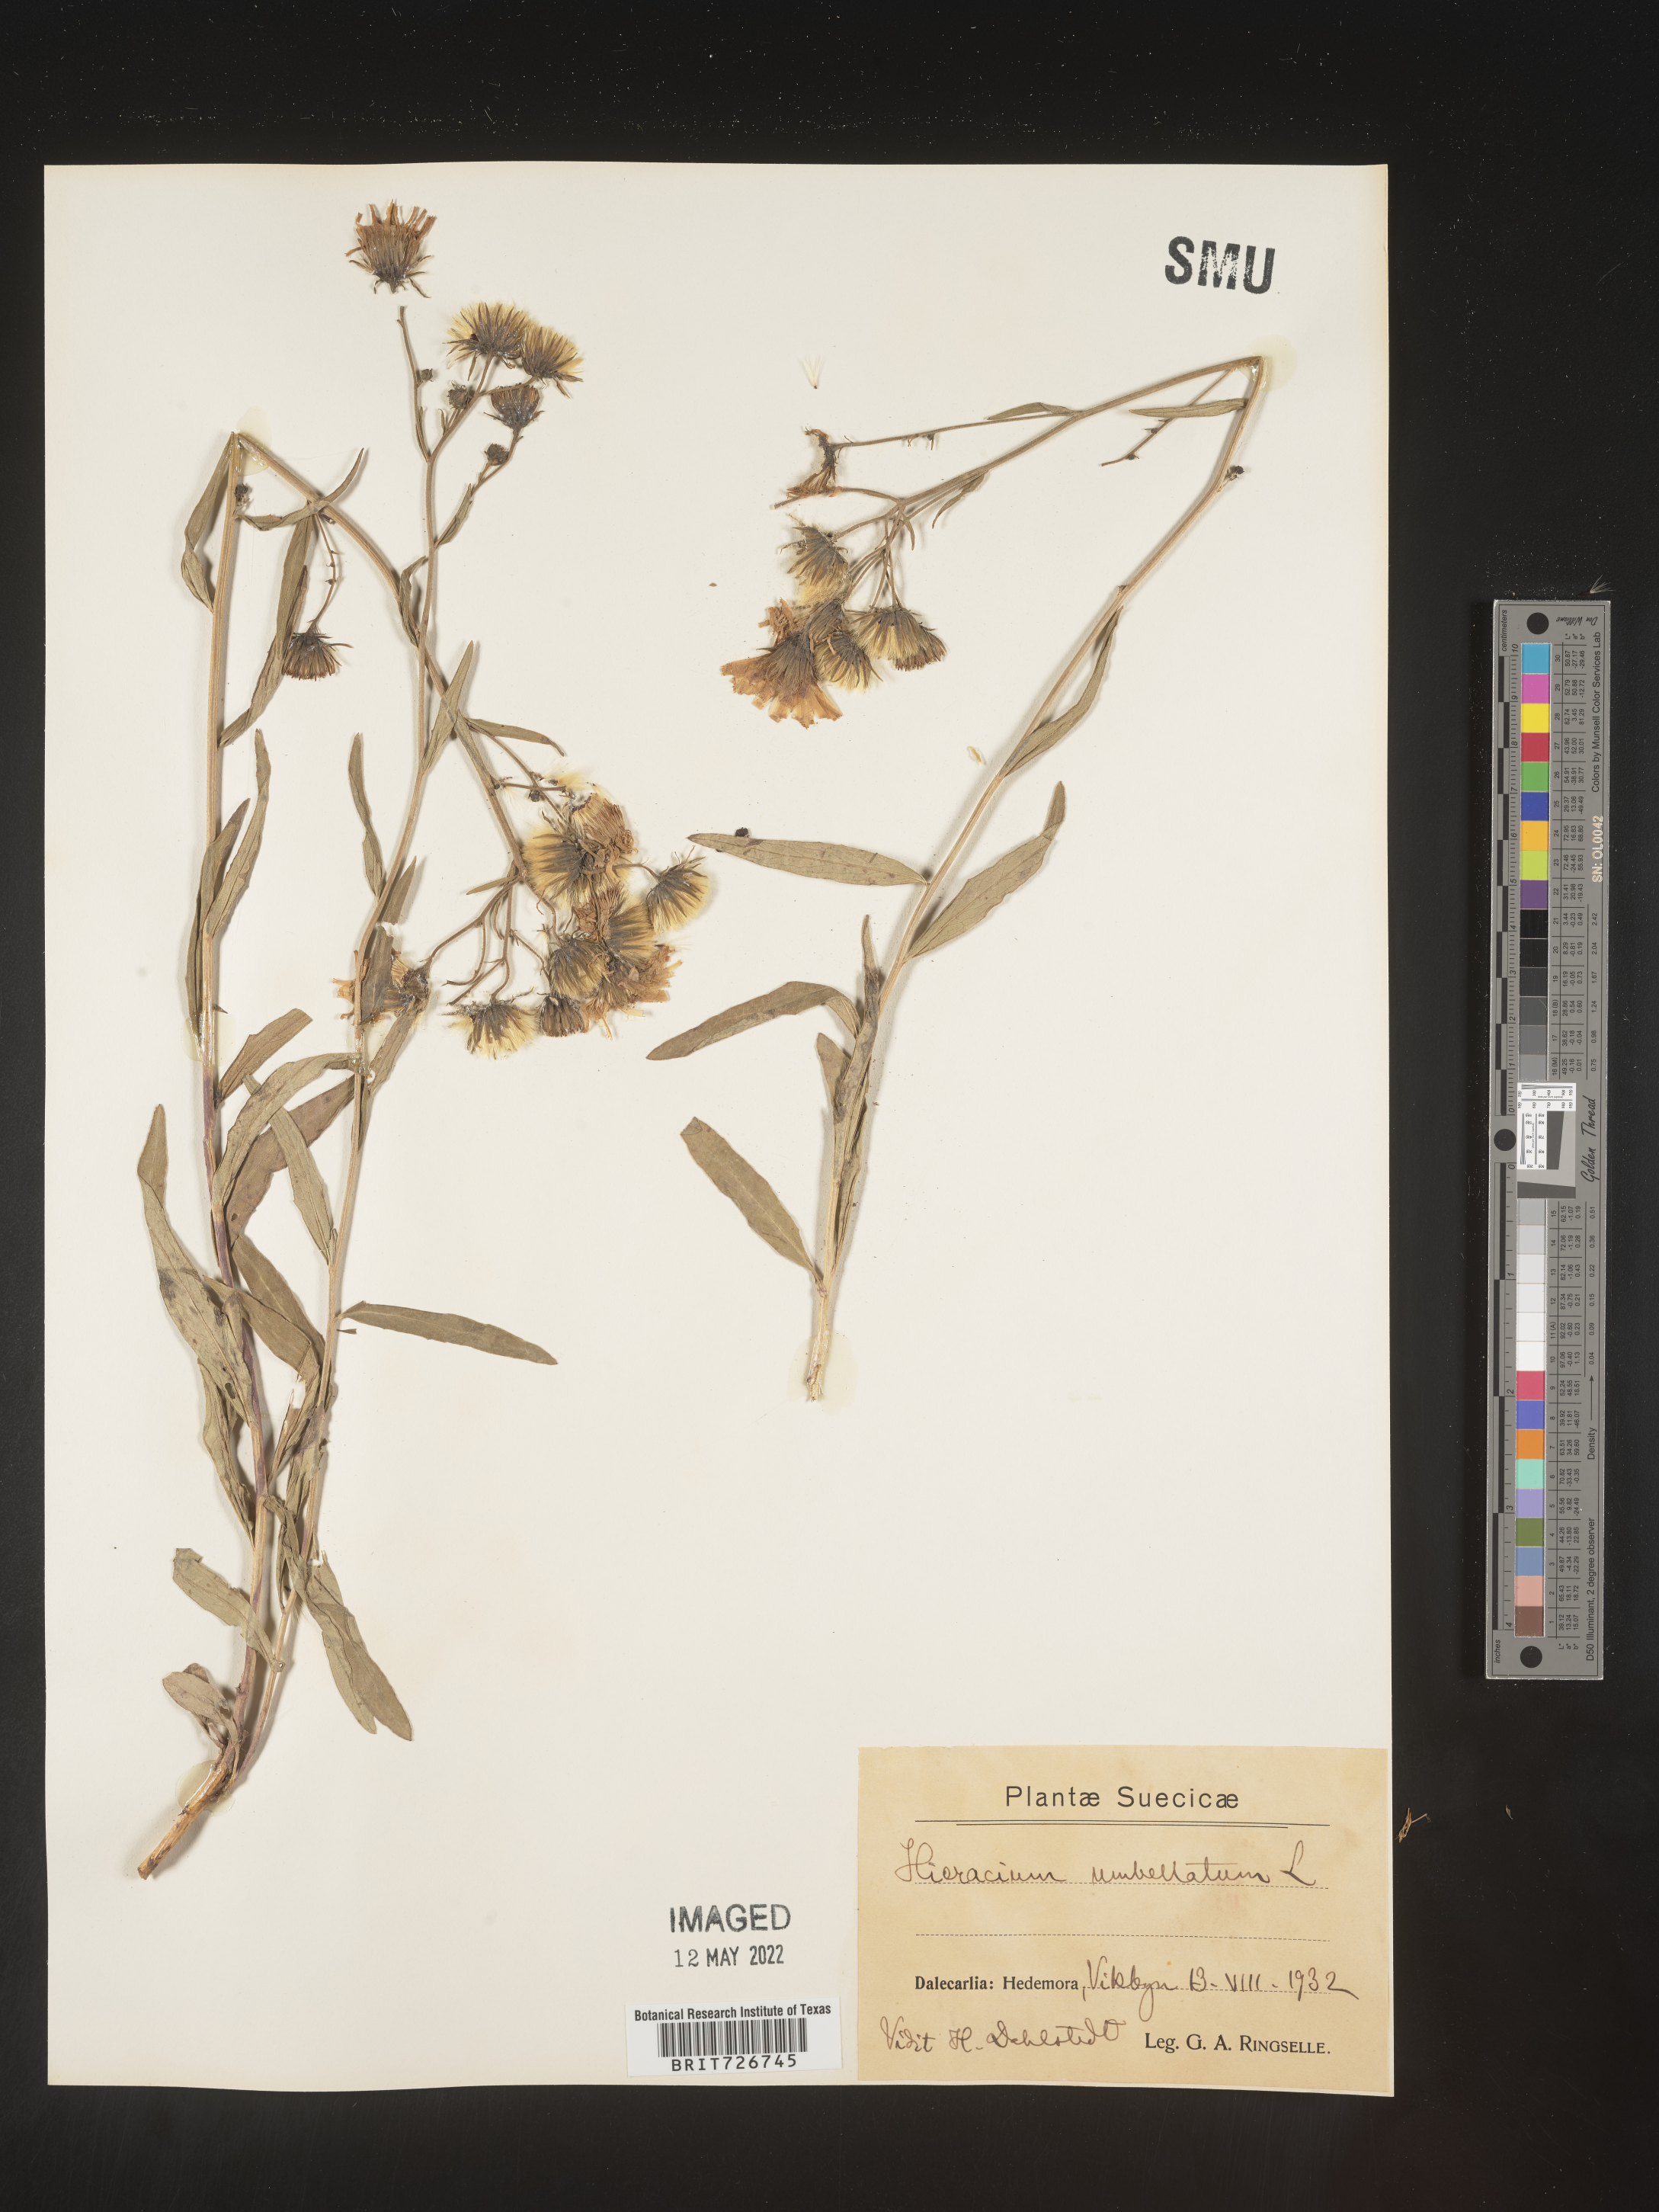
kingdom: Plantae
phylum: Tracheophyta
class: Magnoliopsida
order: Asterales
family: Asteraceae
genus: Hieracium
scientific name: Hieracium
